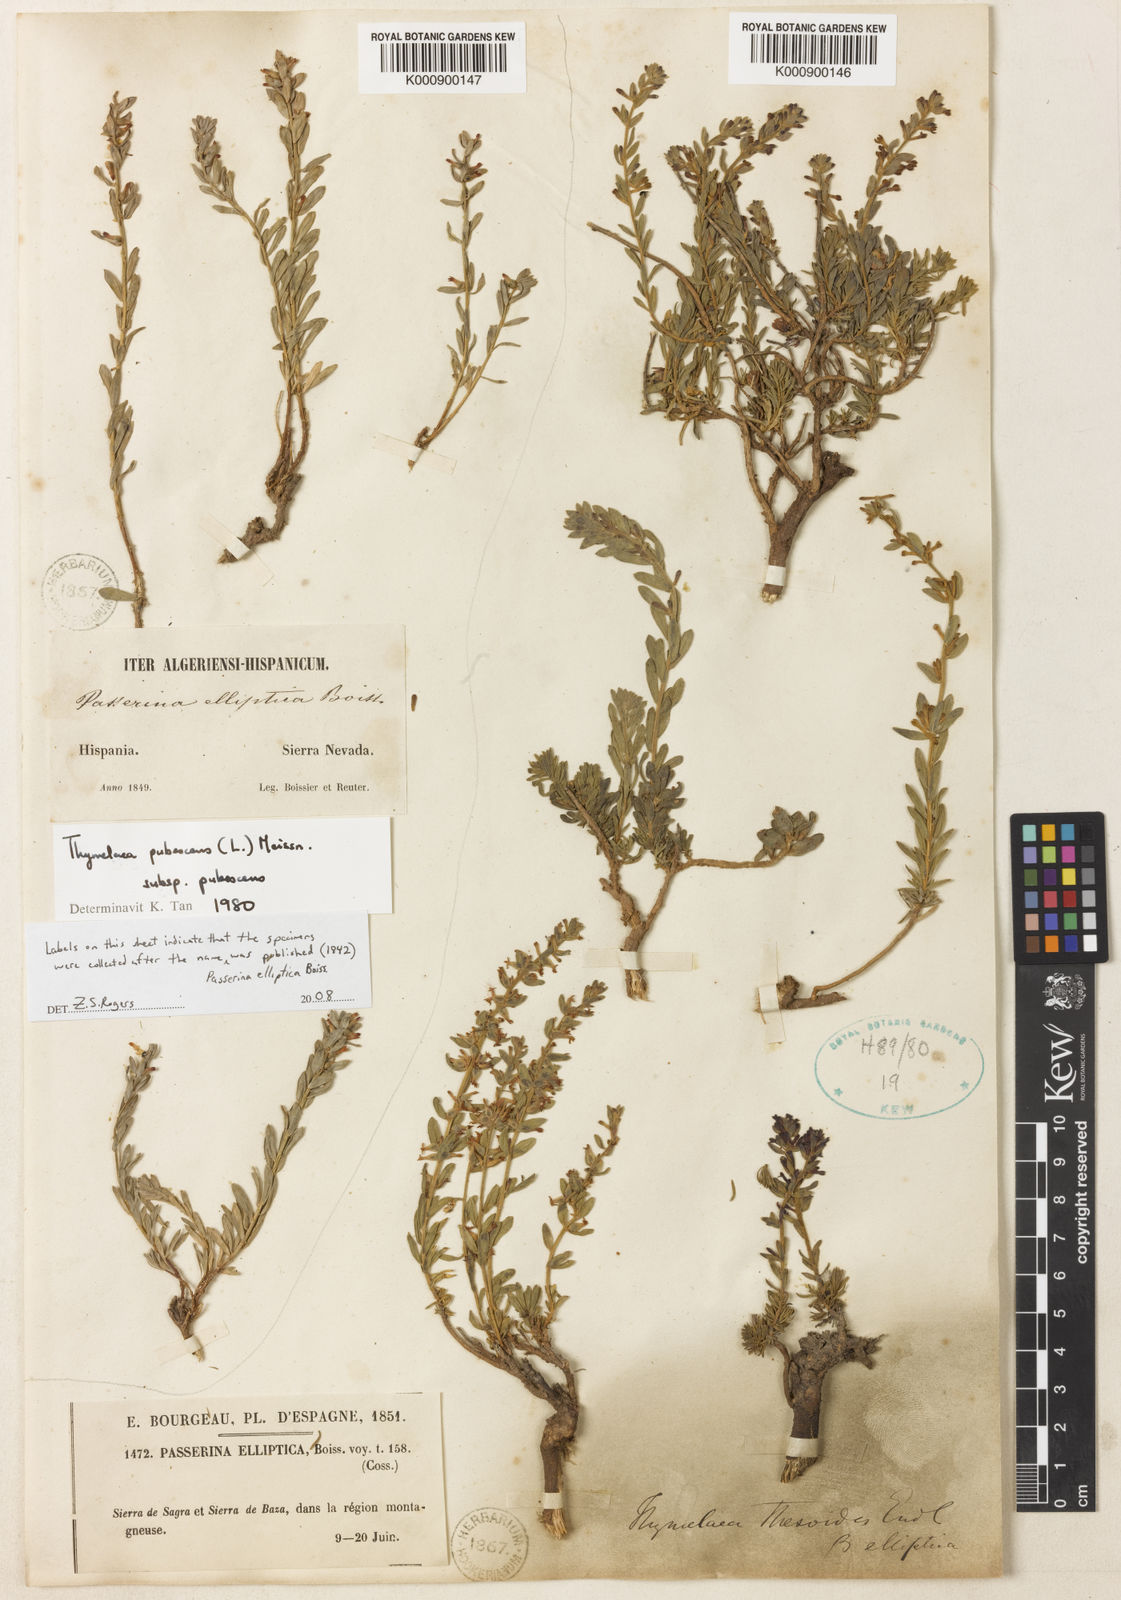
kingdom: Plantae
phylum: Tracheophyta
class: Magnoliopsida
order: Malvales
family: Thymelaeaceae
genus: Thymelaea
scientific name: Thymelaea pubescens
